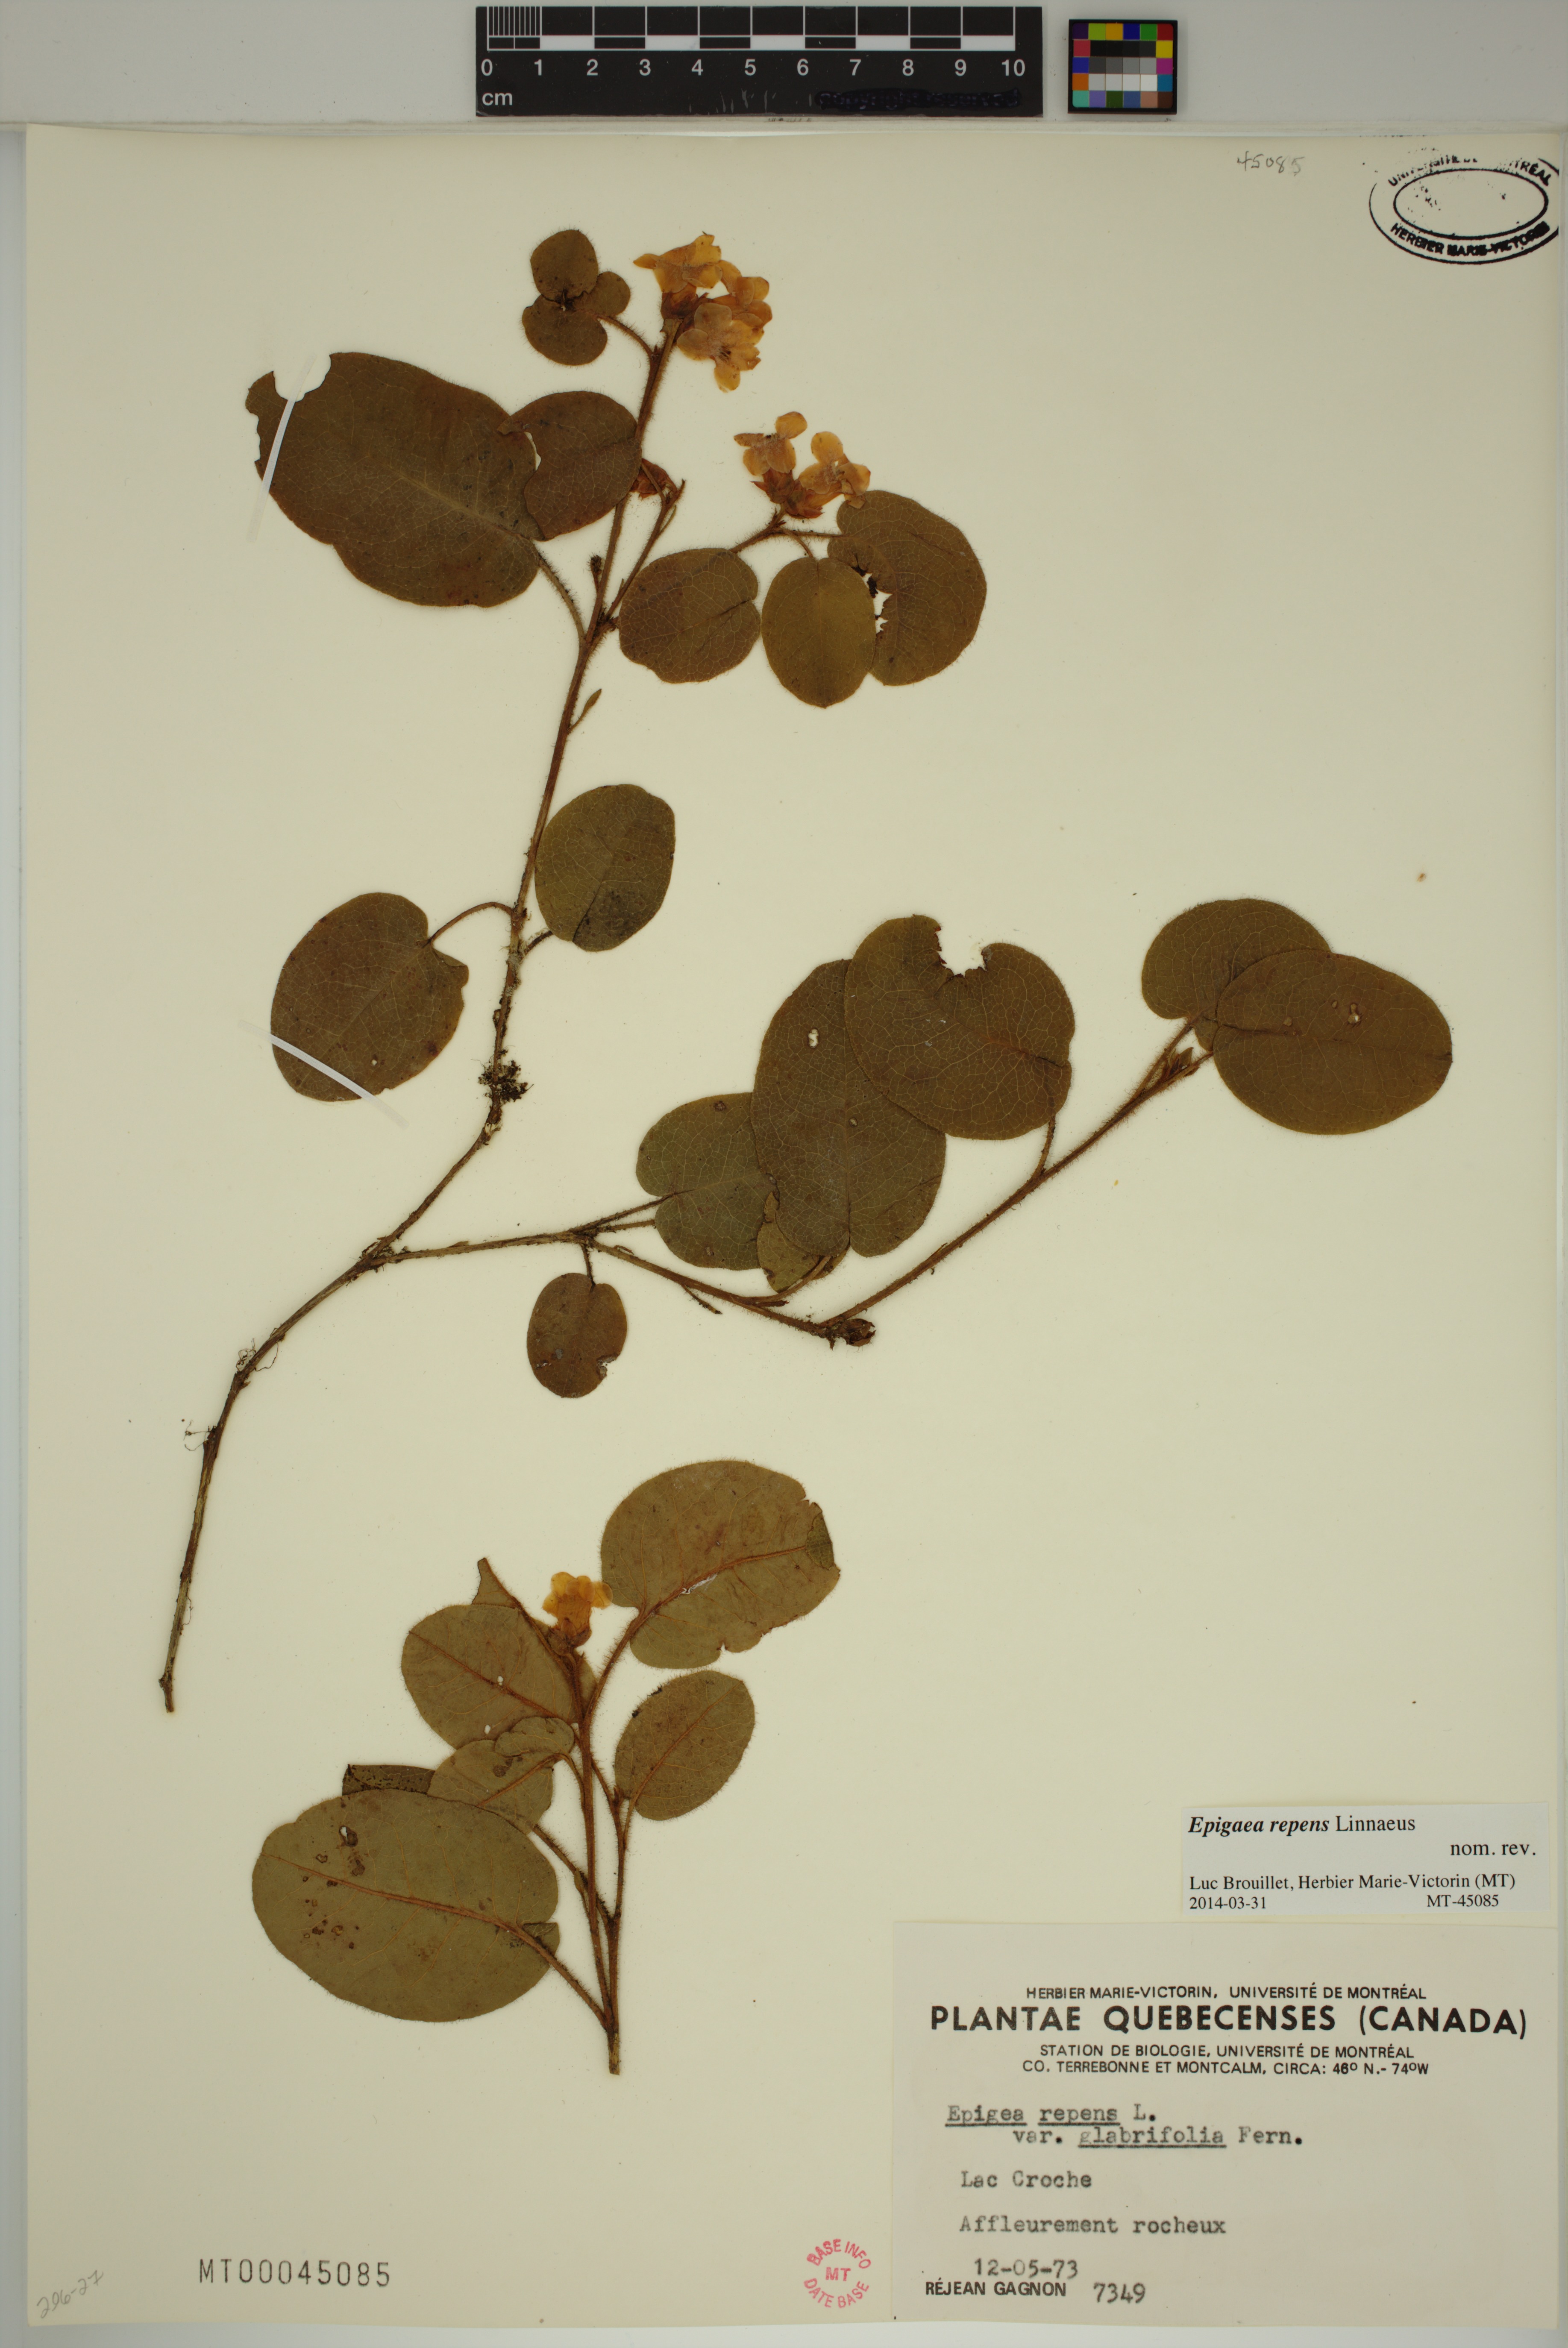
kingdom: Plantae
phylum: Tracheophyta
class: Magnoliopsida
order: Ericales
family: Ericaceae
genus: Epigaea
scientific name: Epigaea repens
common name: Gravelroot
